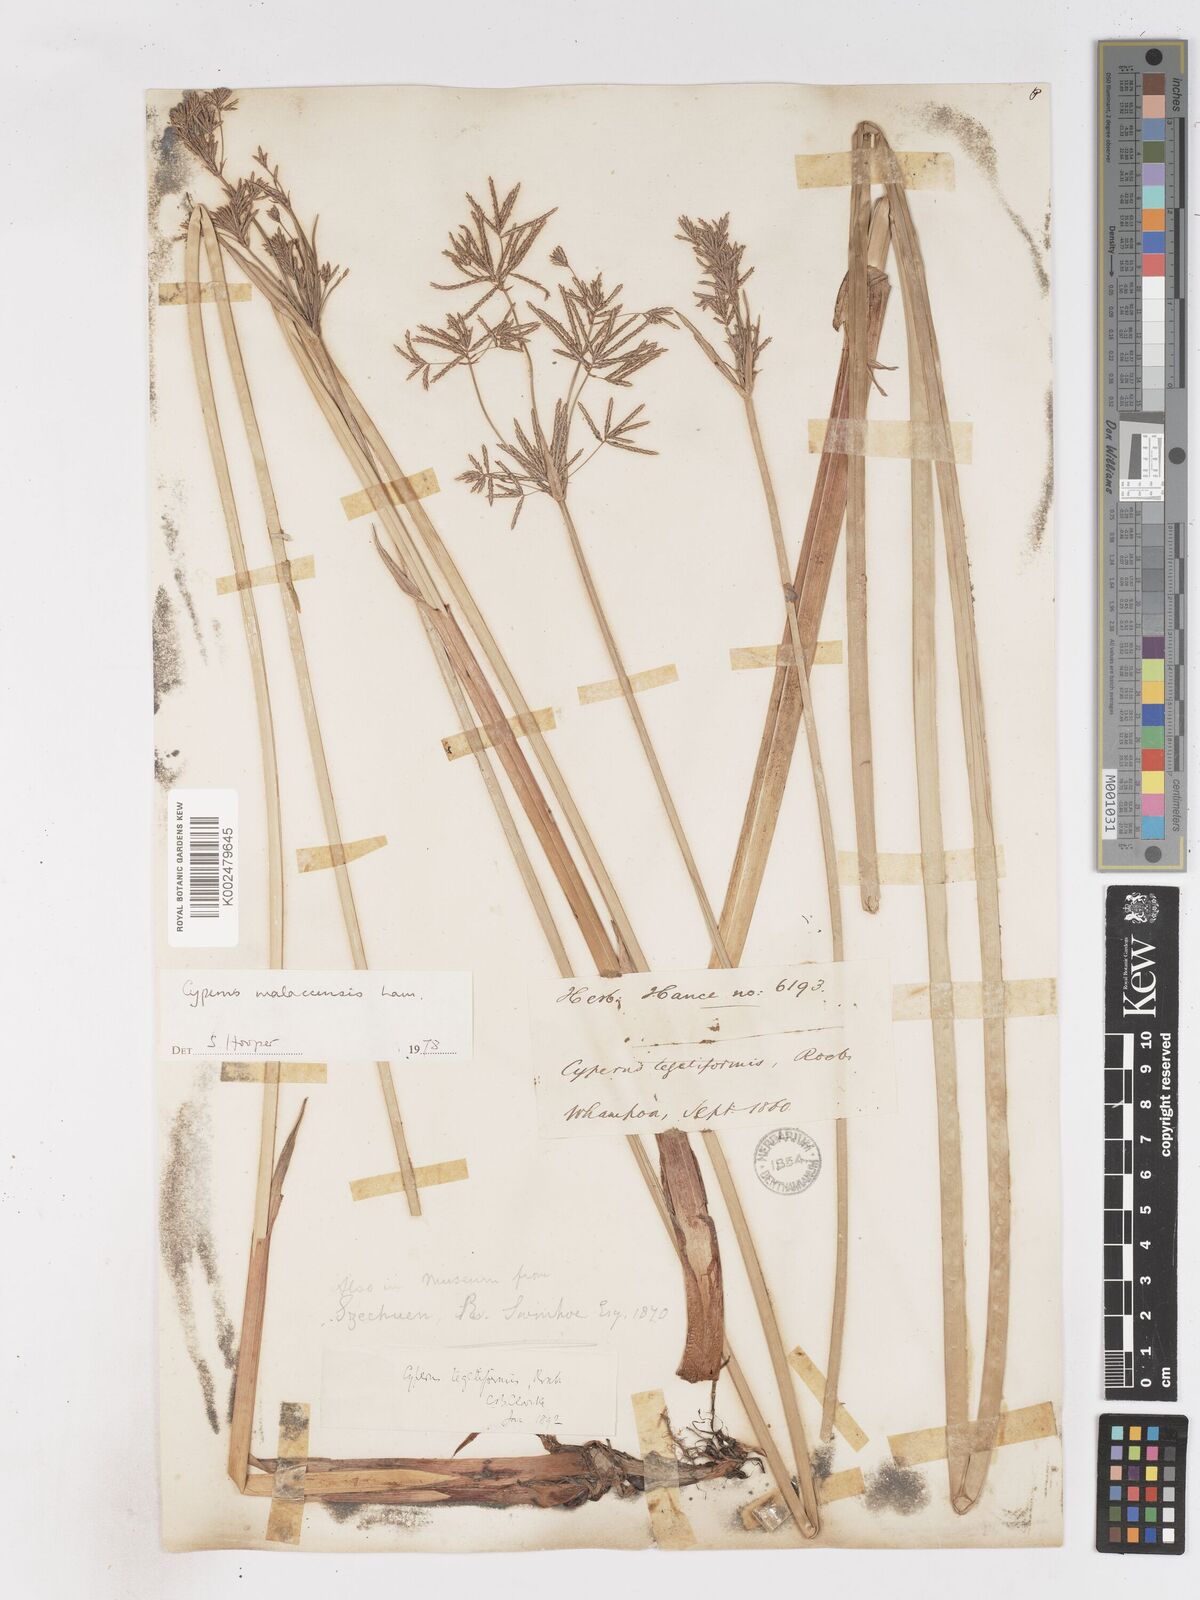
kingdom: Plantae
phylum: Tracheophyta
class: Liliopsida
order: Poales
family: Cyperaceae
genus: Cyperus
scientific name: Cyperus corymbosus
